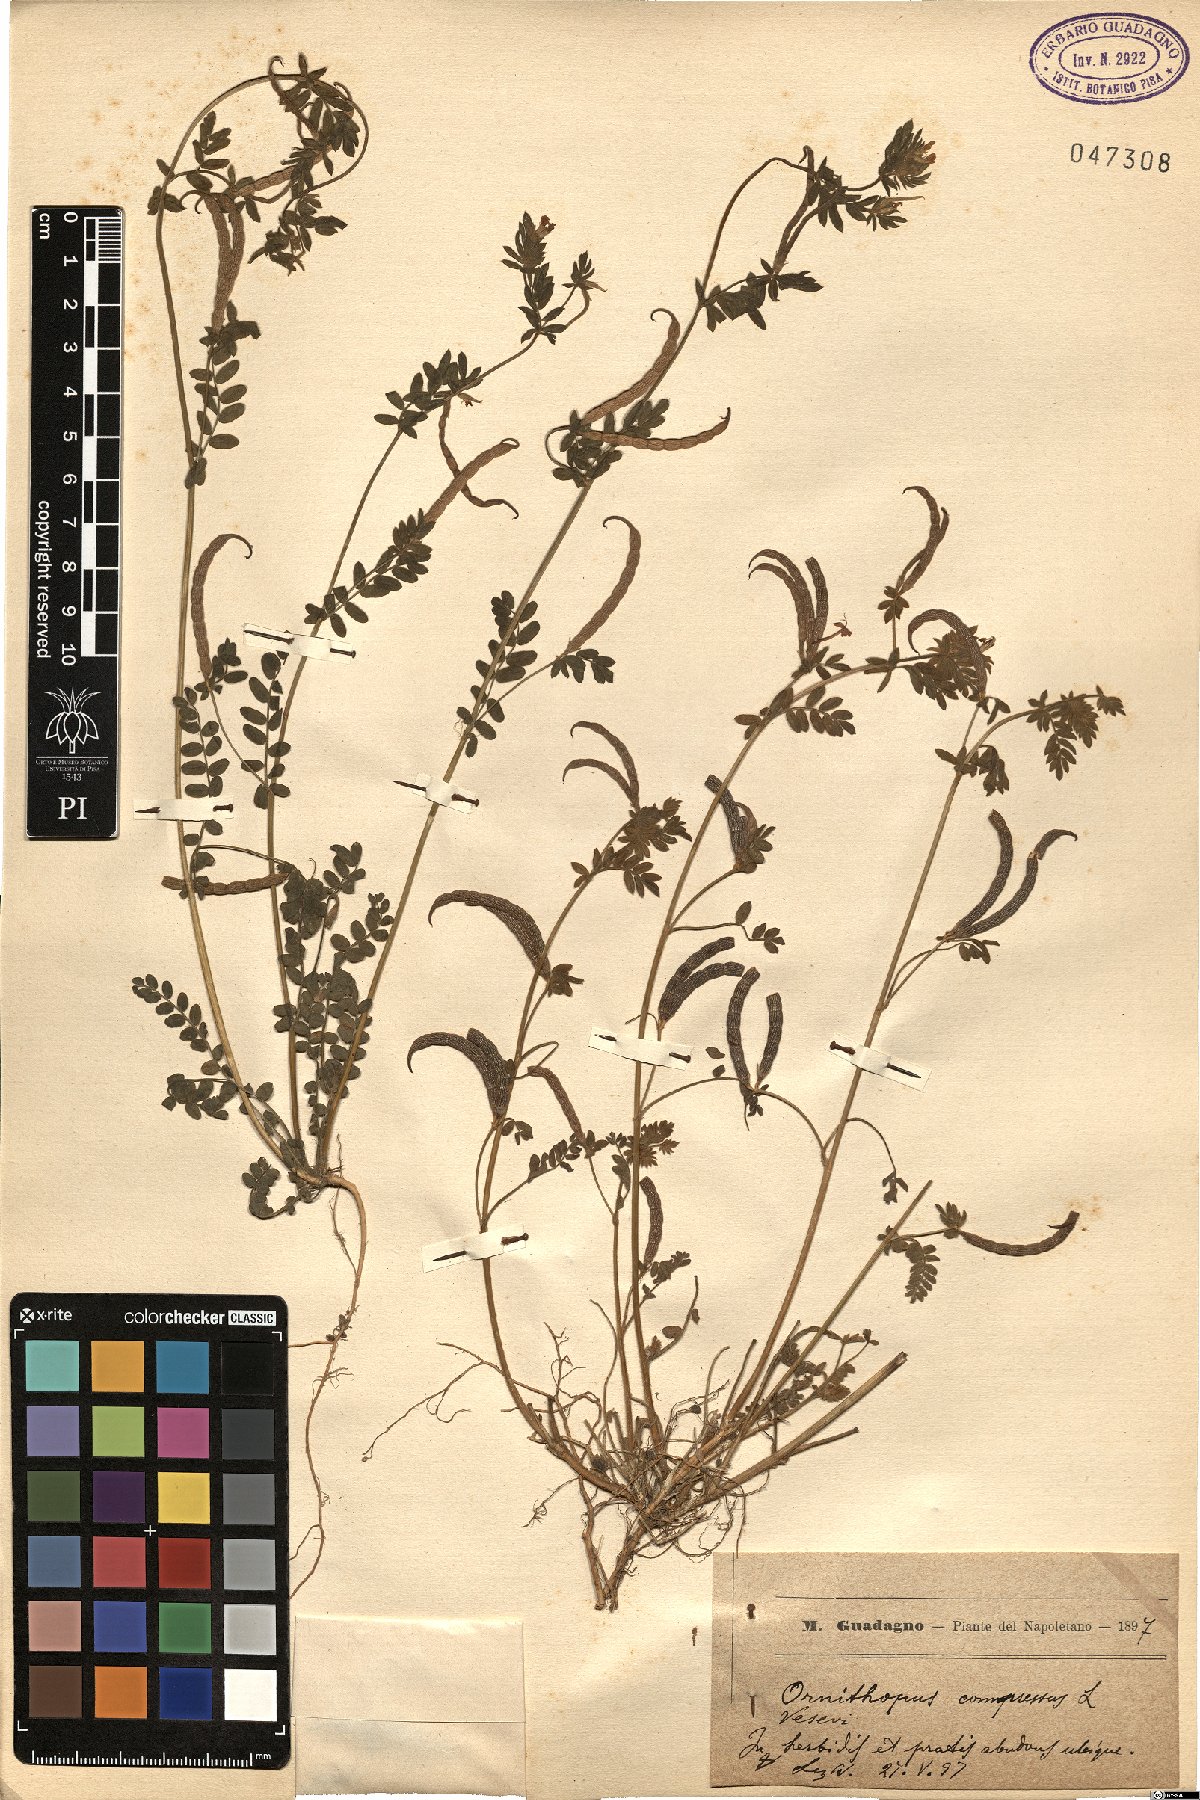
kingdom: Plantae
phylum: Tracheophyta
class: Magnoliopsida
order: Fabales
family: Fabaceae
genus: Ornithopus
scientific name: Ornithopus compressus
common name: Yellow serradella
